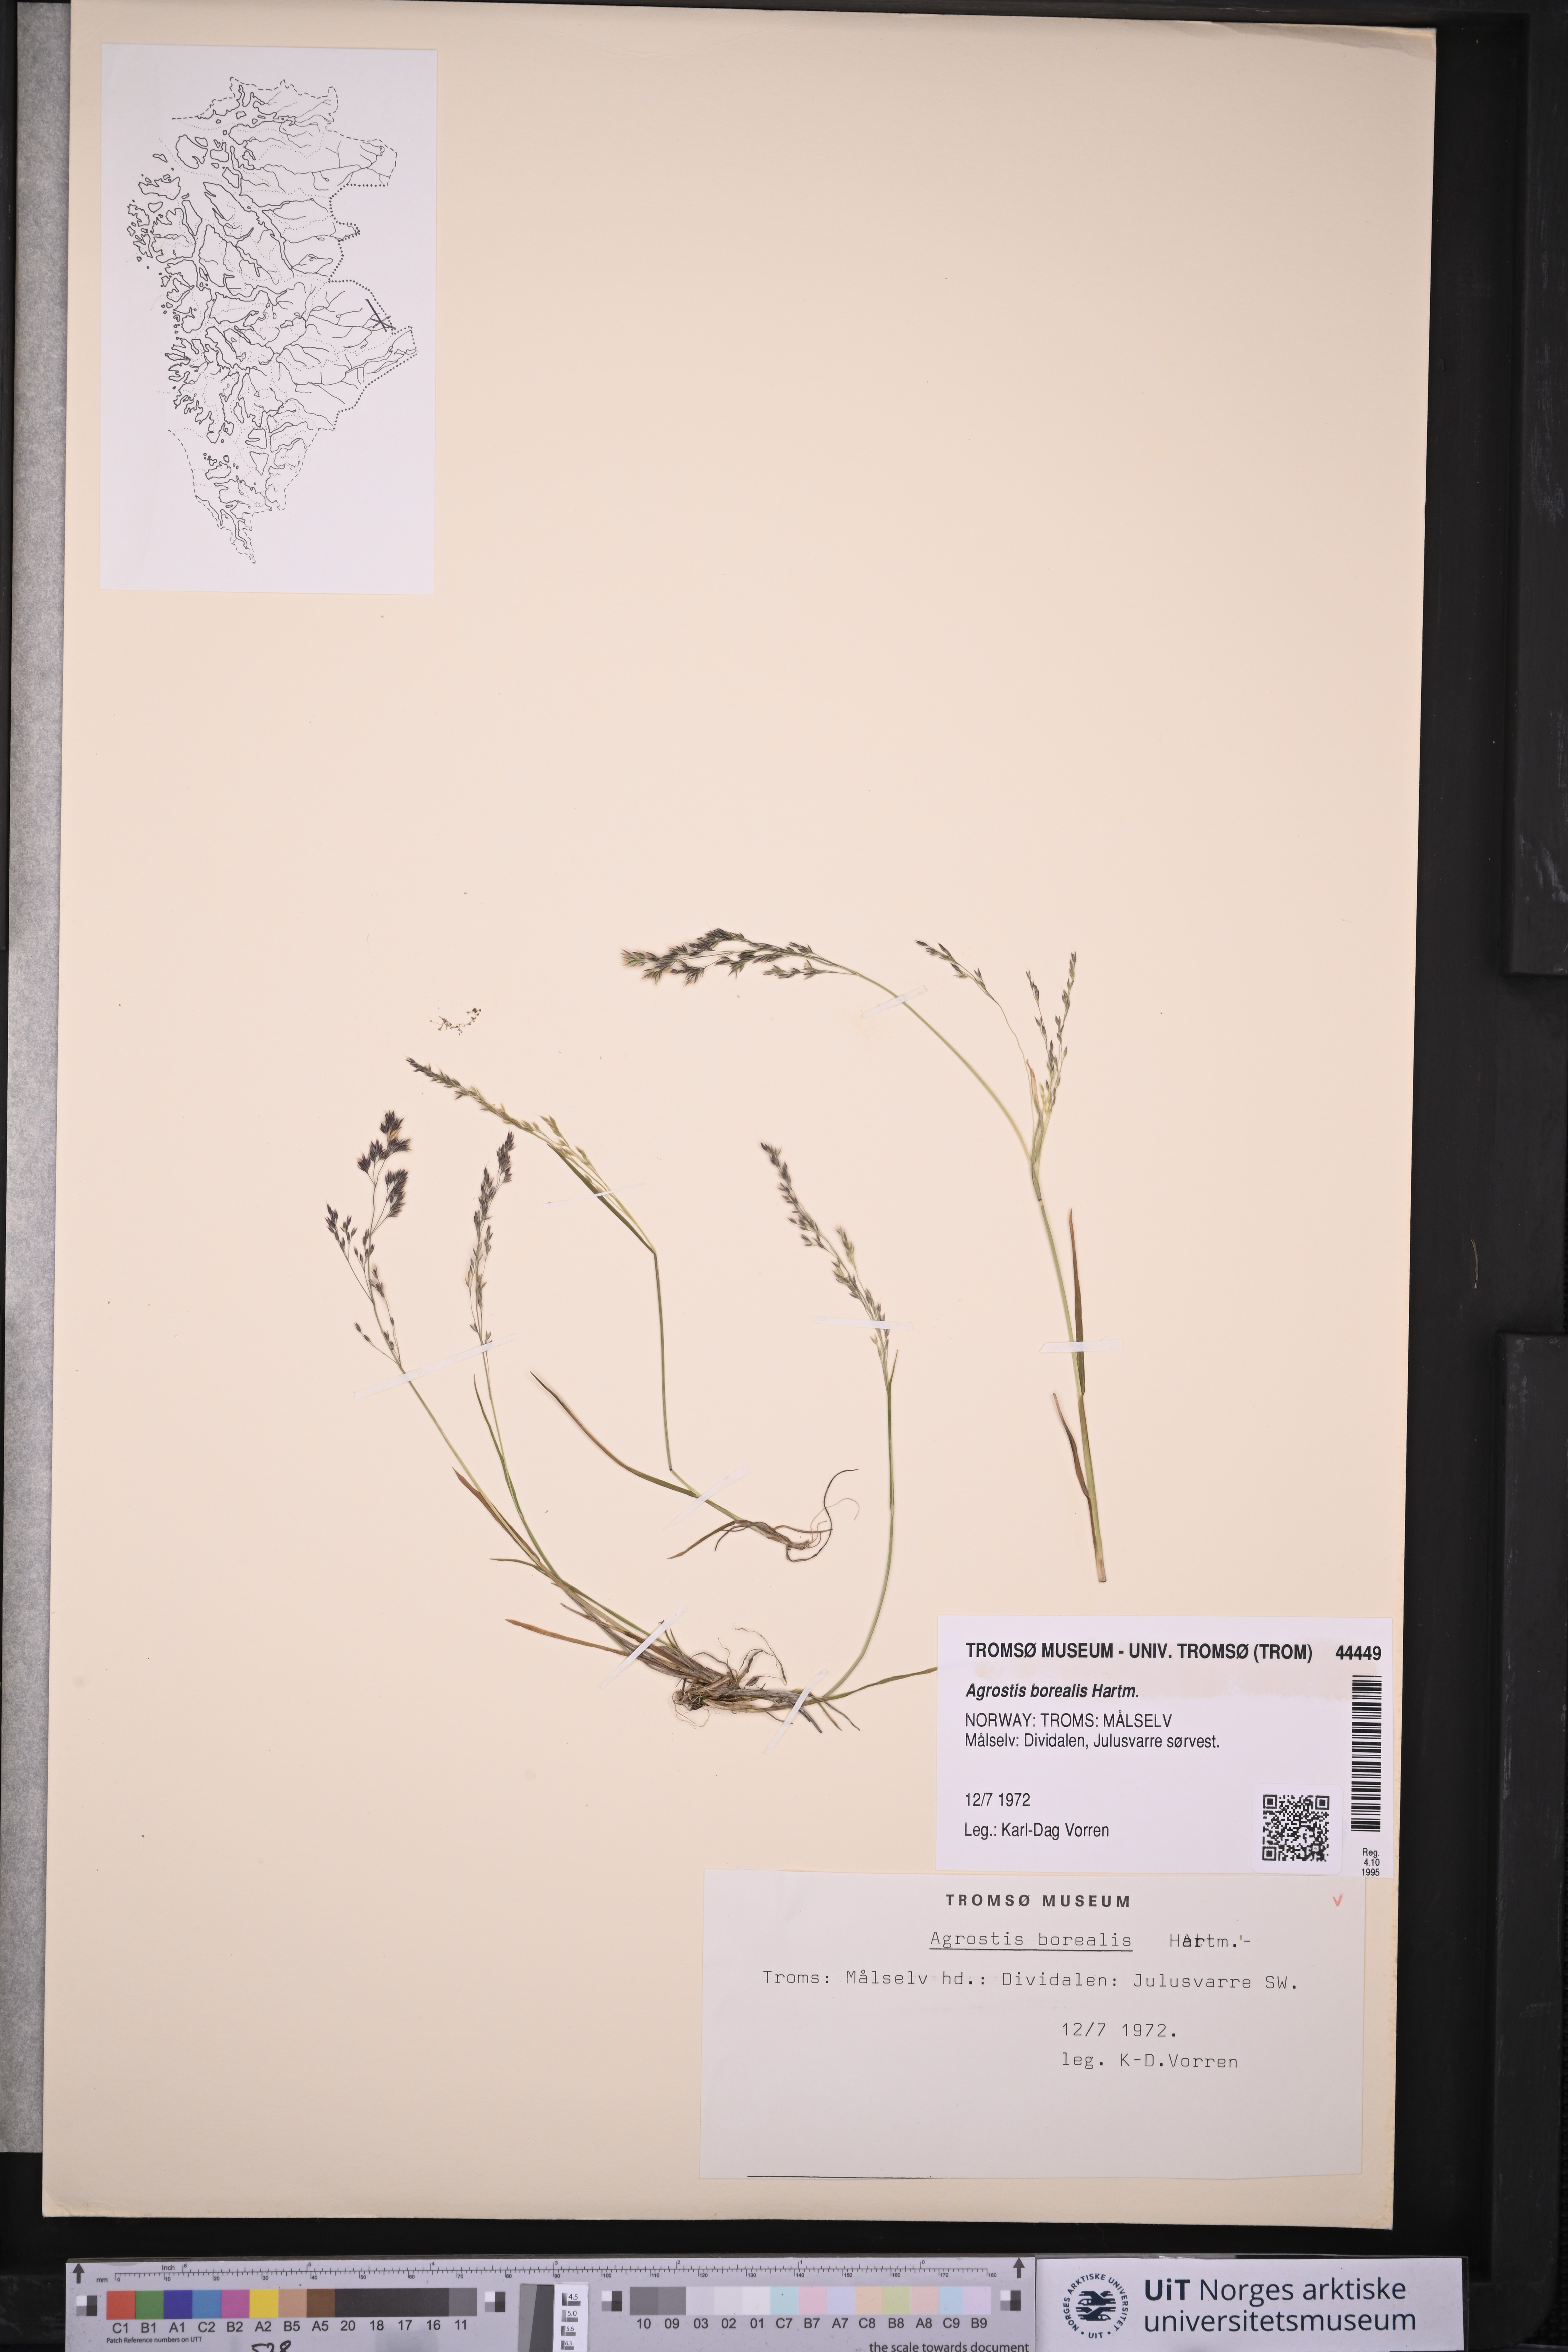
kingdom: Plantae
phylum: Tracheophyta
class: Liliopsida
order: Poales
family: Poaceae
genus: Agrostis
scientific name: Agrostis mertensii
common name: Northern bent
